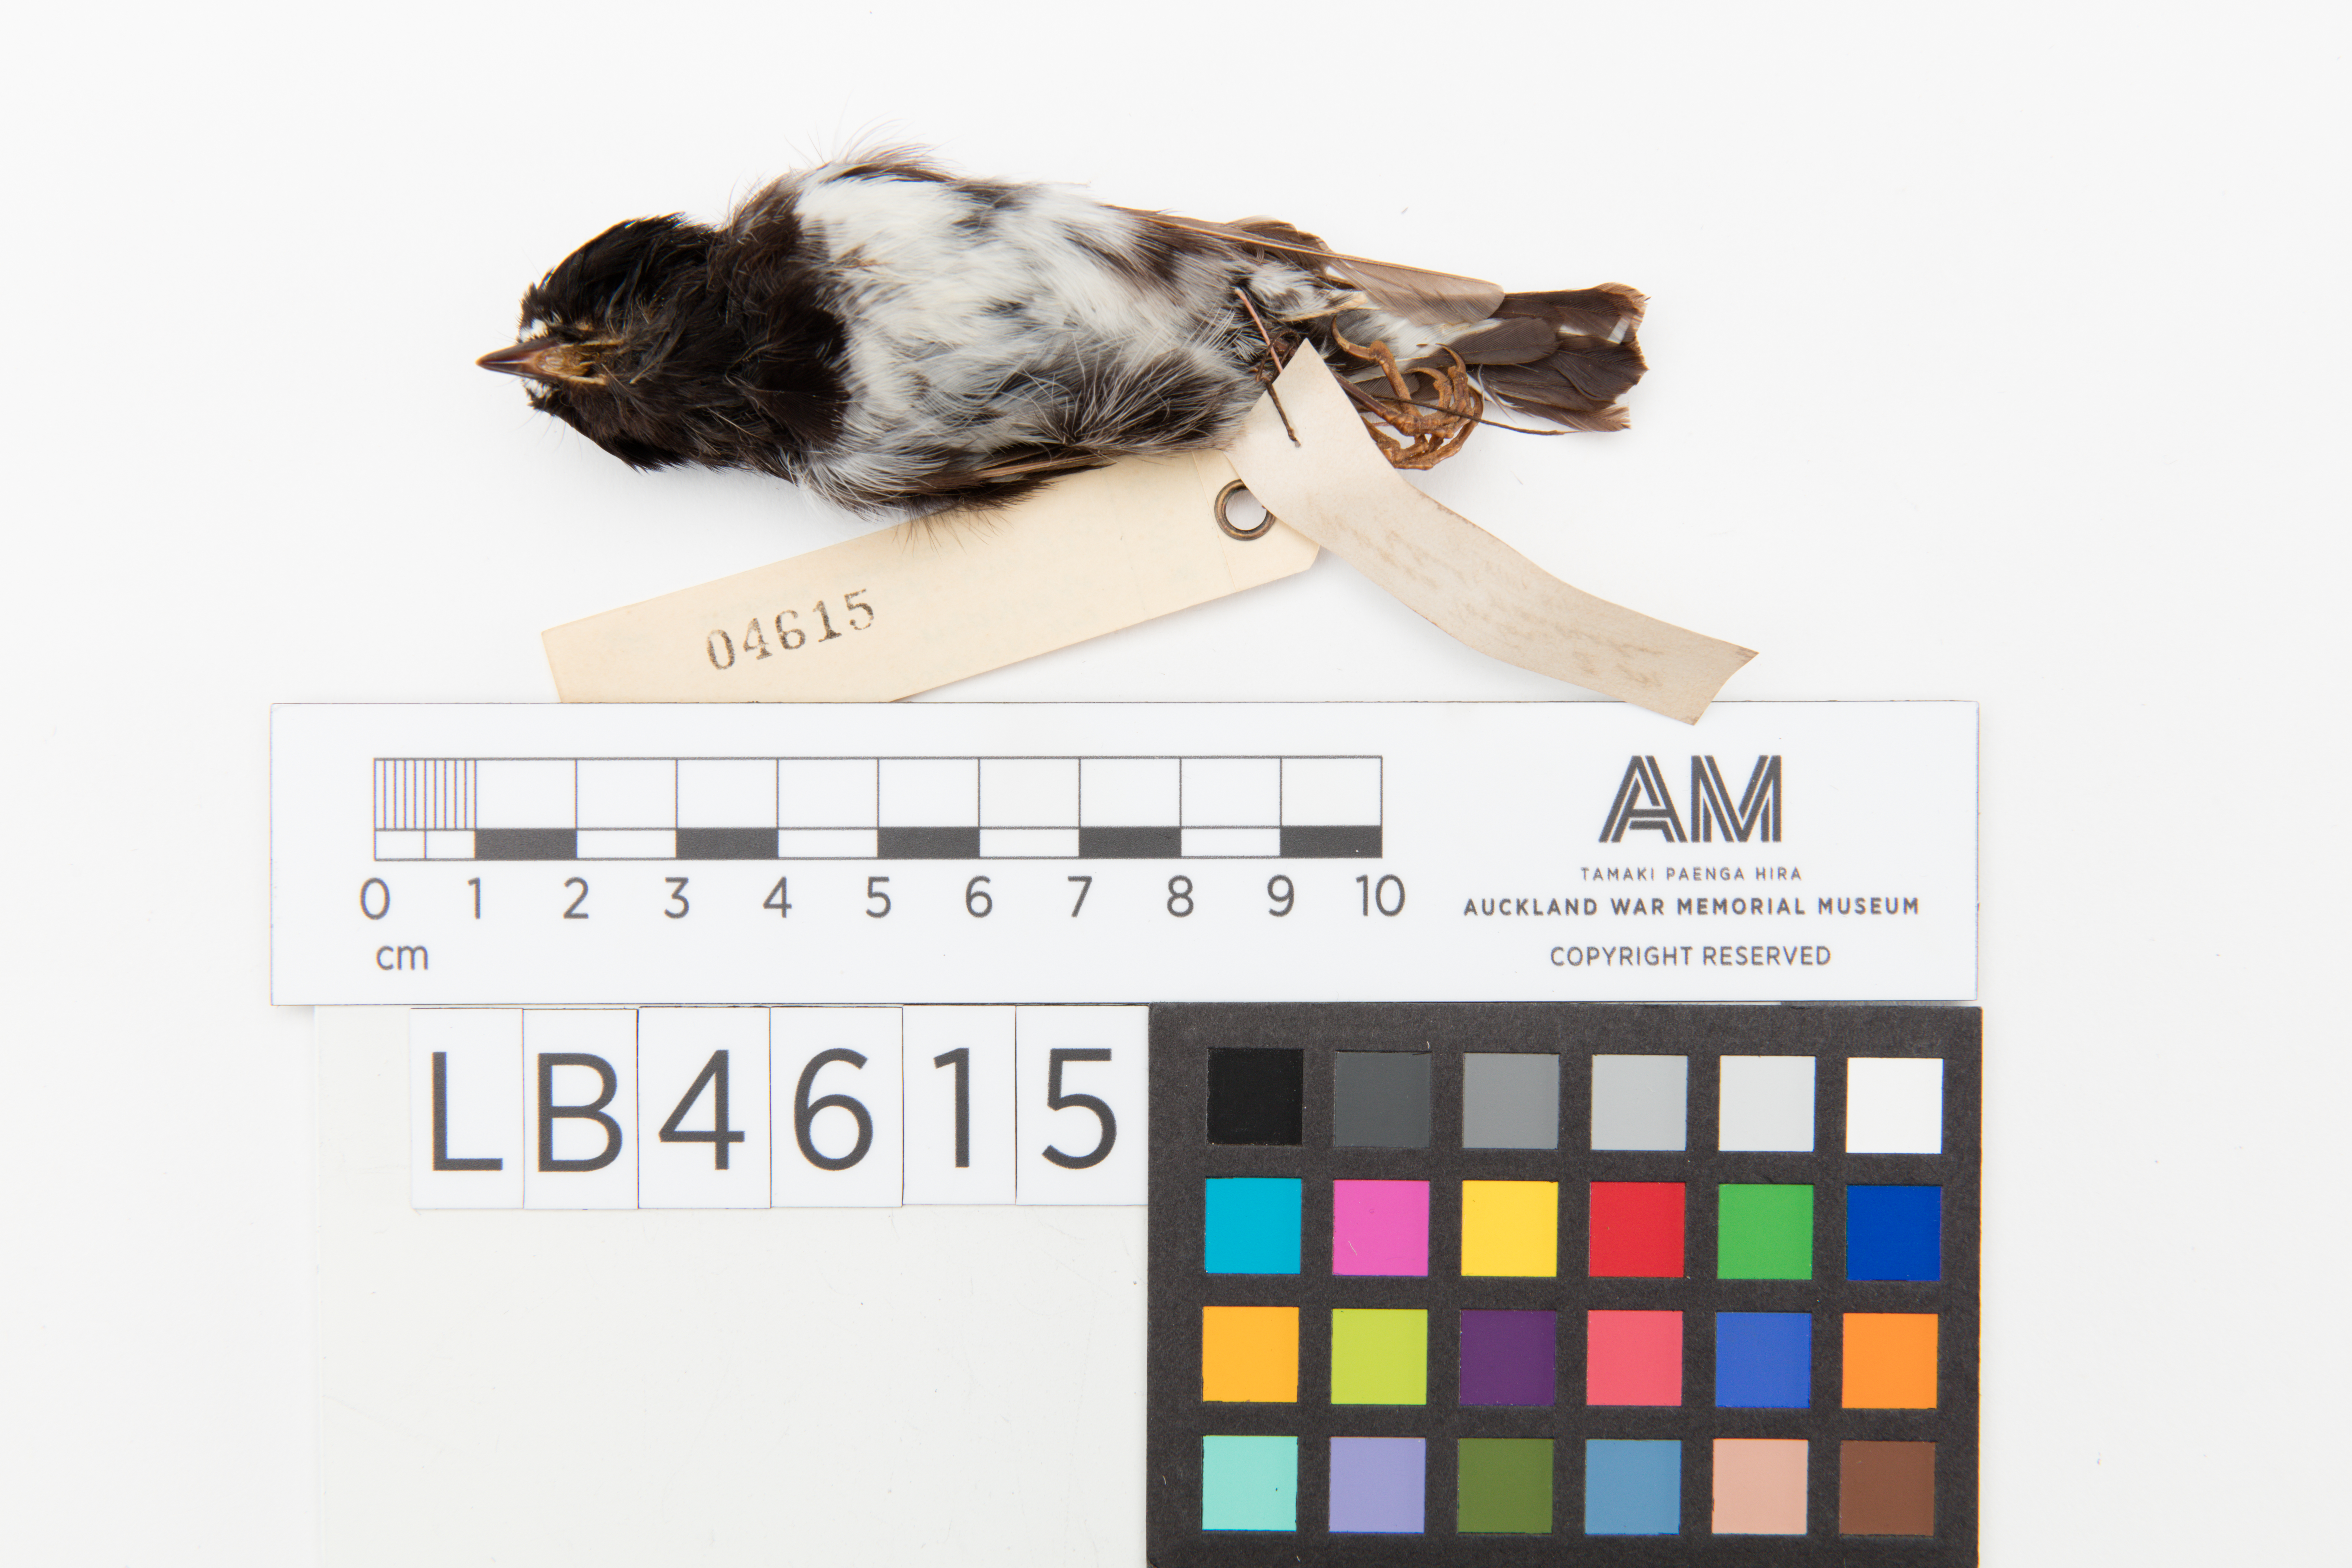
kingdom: Animalia
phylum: Chordata
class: Aves
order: Passeriformes
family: Petroicidae
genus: Petroica
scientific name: Petroica macrocephala
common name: Tomtit
